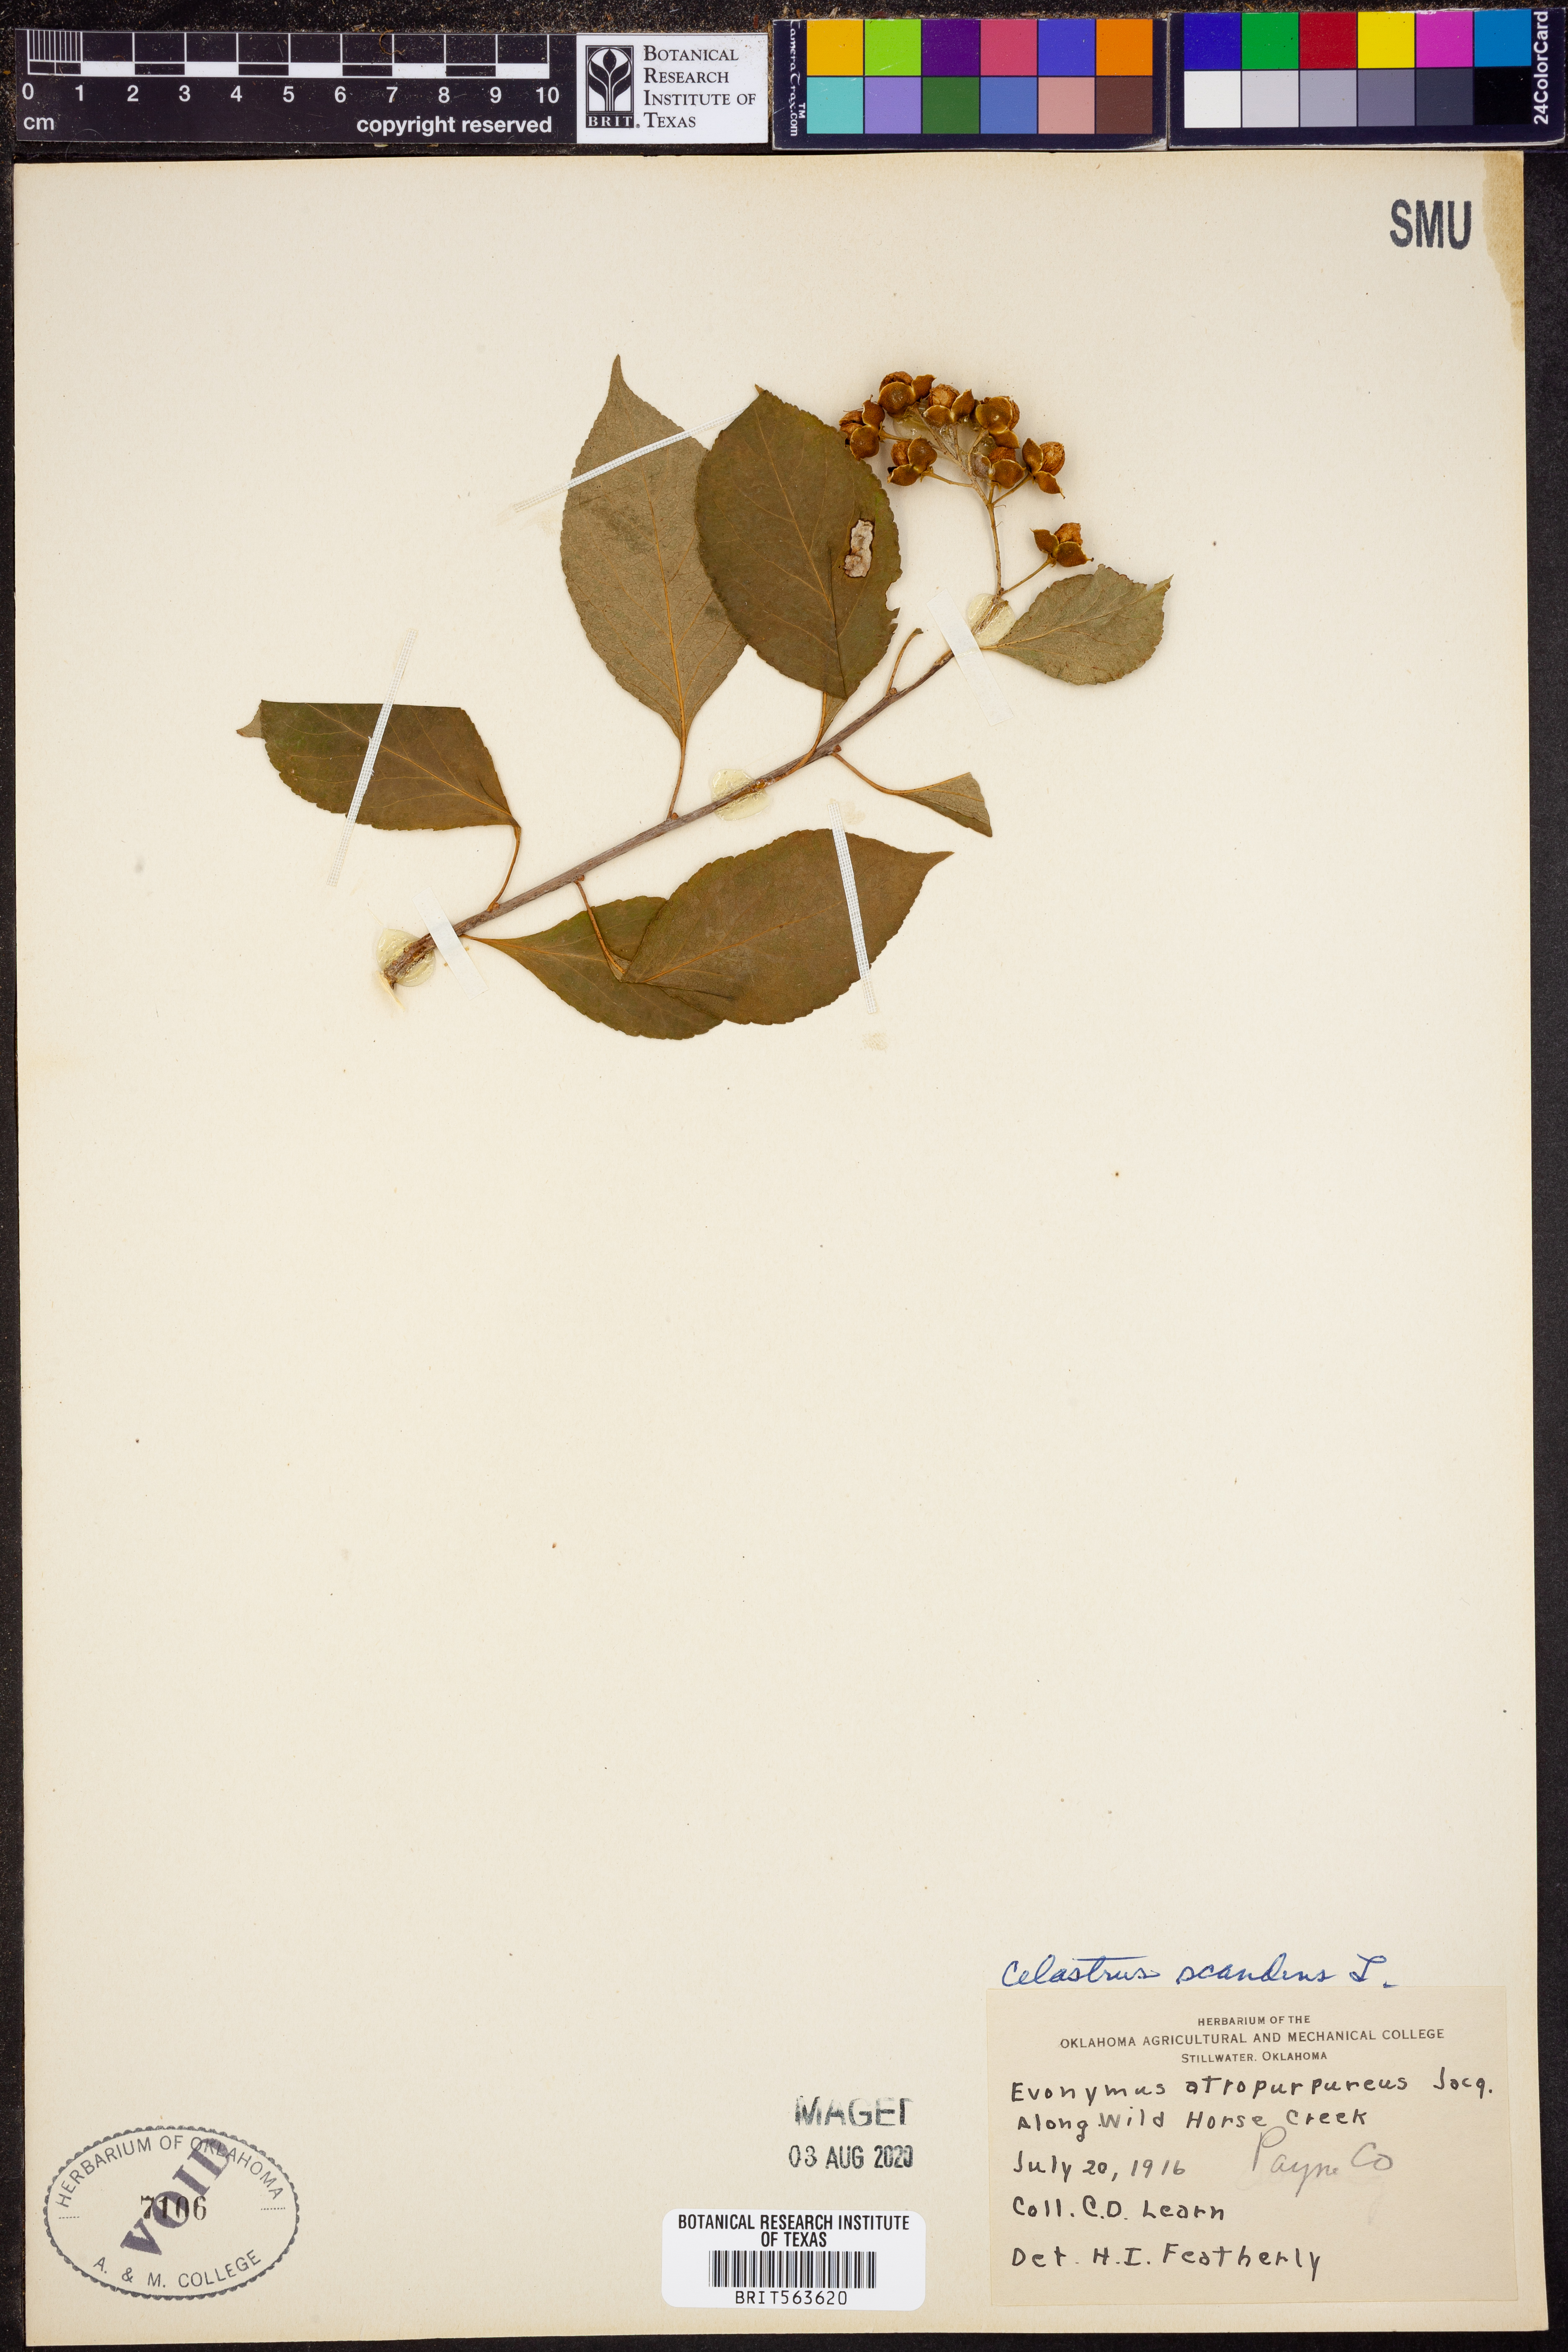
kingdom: Plantae
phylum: Tracheophyta
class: Magnoliopsida
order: Celastrales
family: Celastraceae
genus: Celastrus
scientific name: Celastrus scandens
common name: American bittersweet
